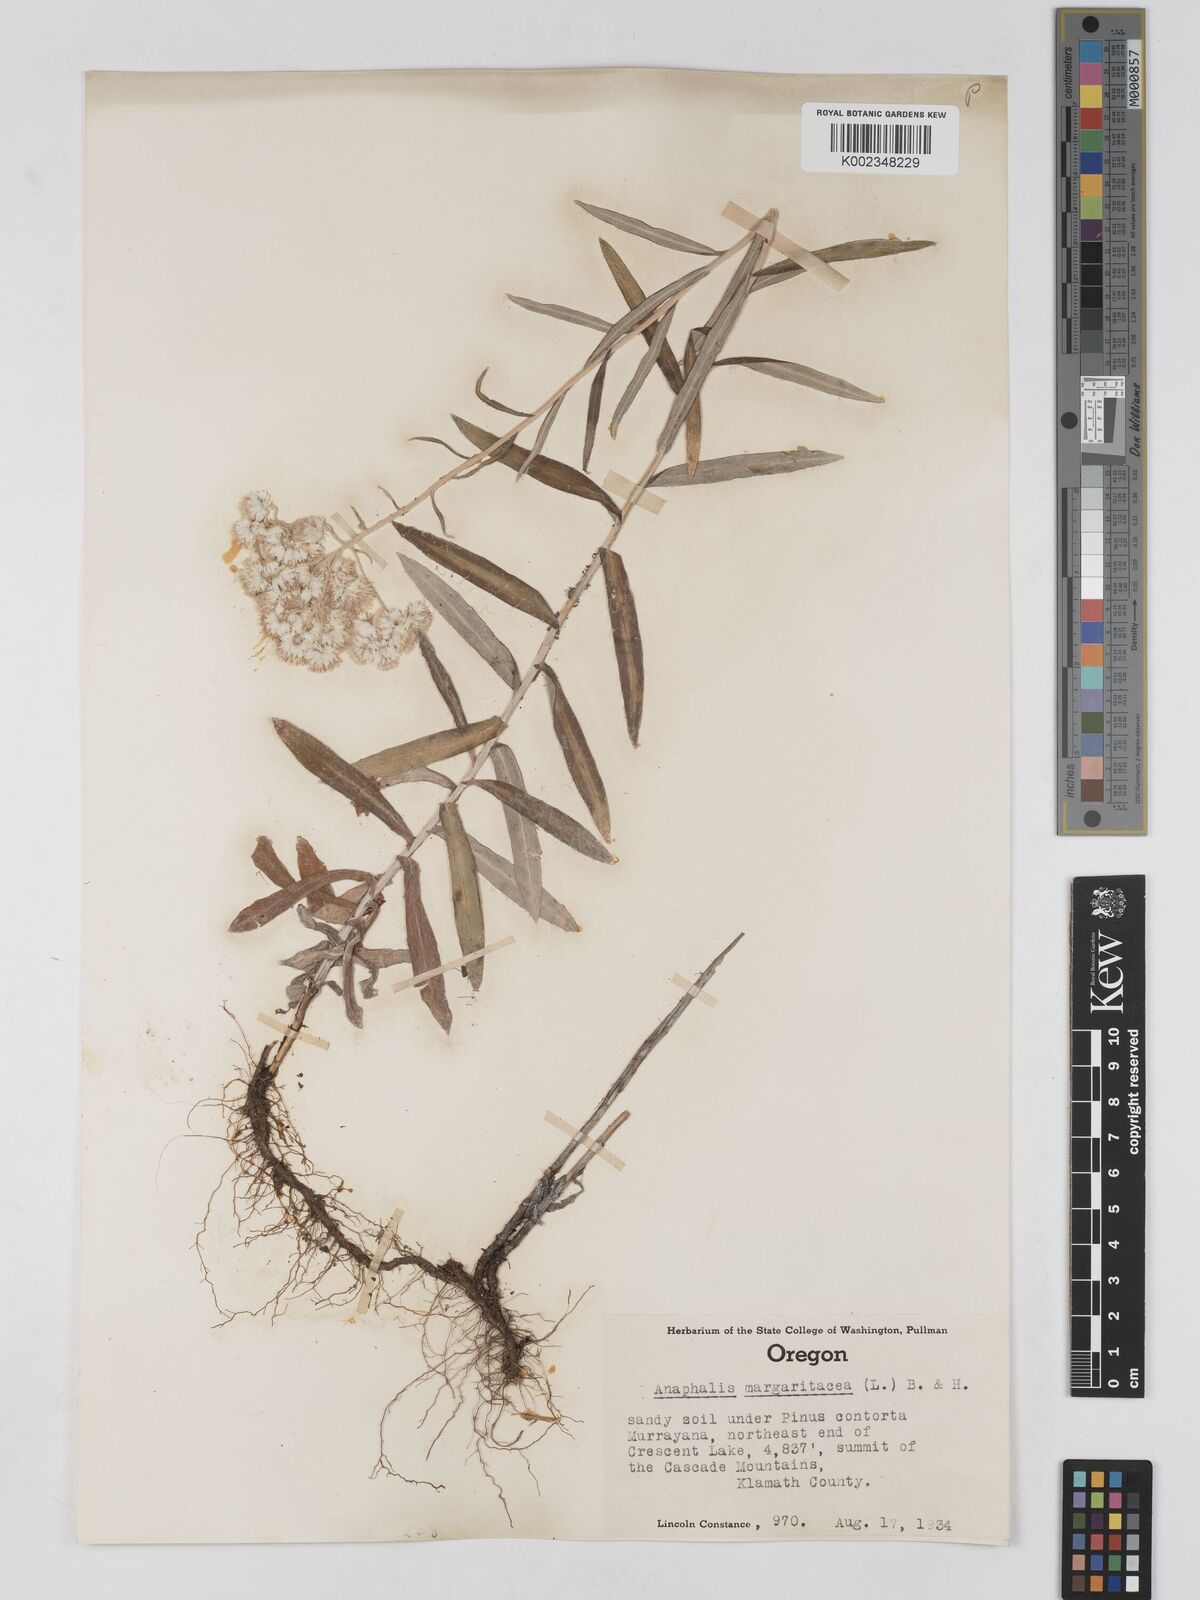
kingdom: Plantae
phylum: Tracheophyta
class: Magnoliopsida
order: Asterales
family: Asteraceae
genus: Anaphalis
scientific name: Anaphalis margaritacea
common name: Pearly everlasting
